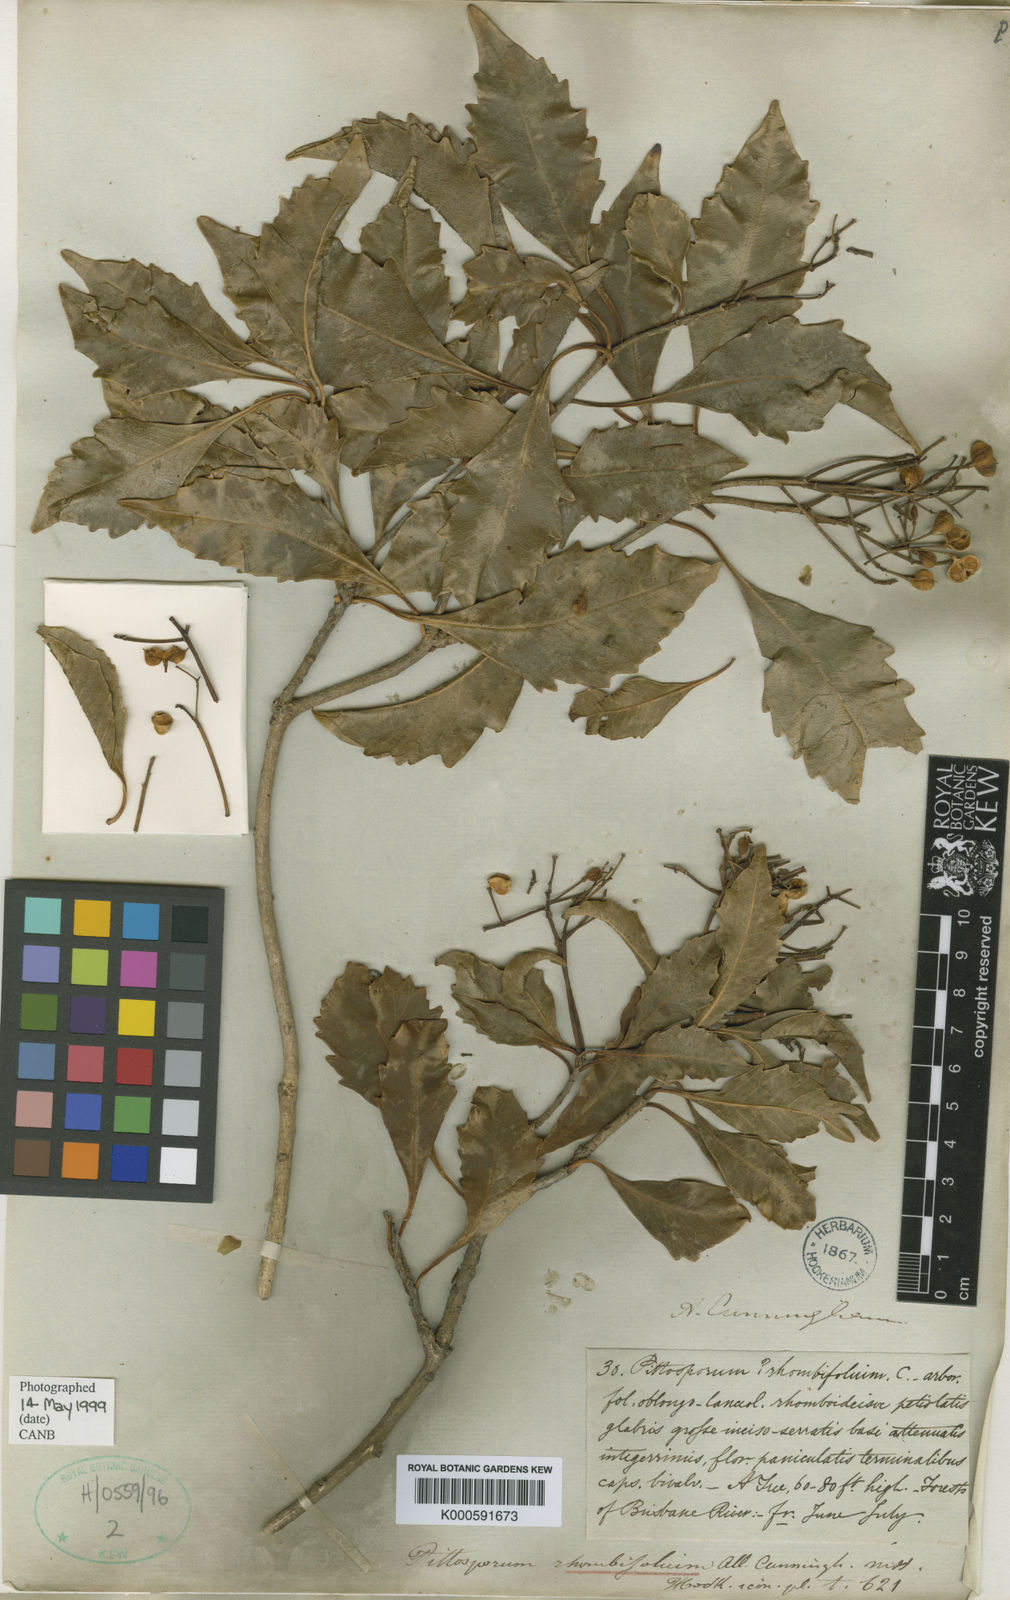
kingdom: Plantae
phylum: Tracheophyta
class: Magnoliopsida
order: Apiales
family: Pittosporaceae
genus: Auranticarpa
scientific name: Auranticarpa rhombifolia
